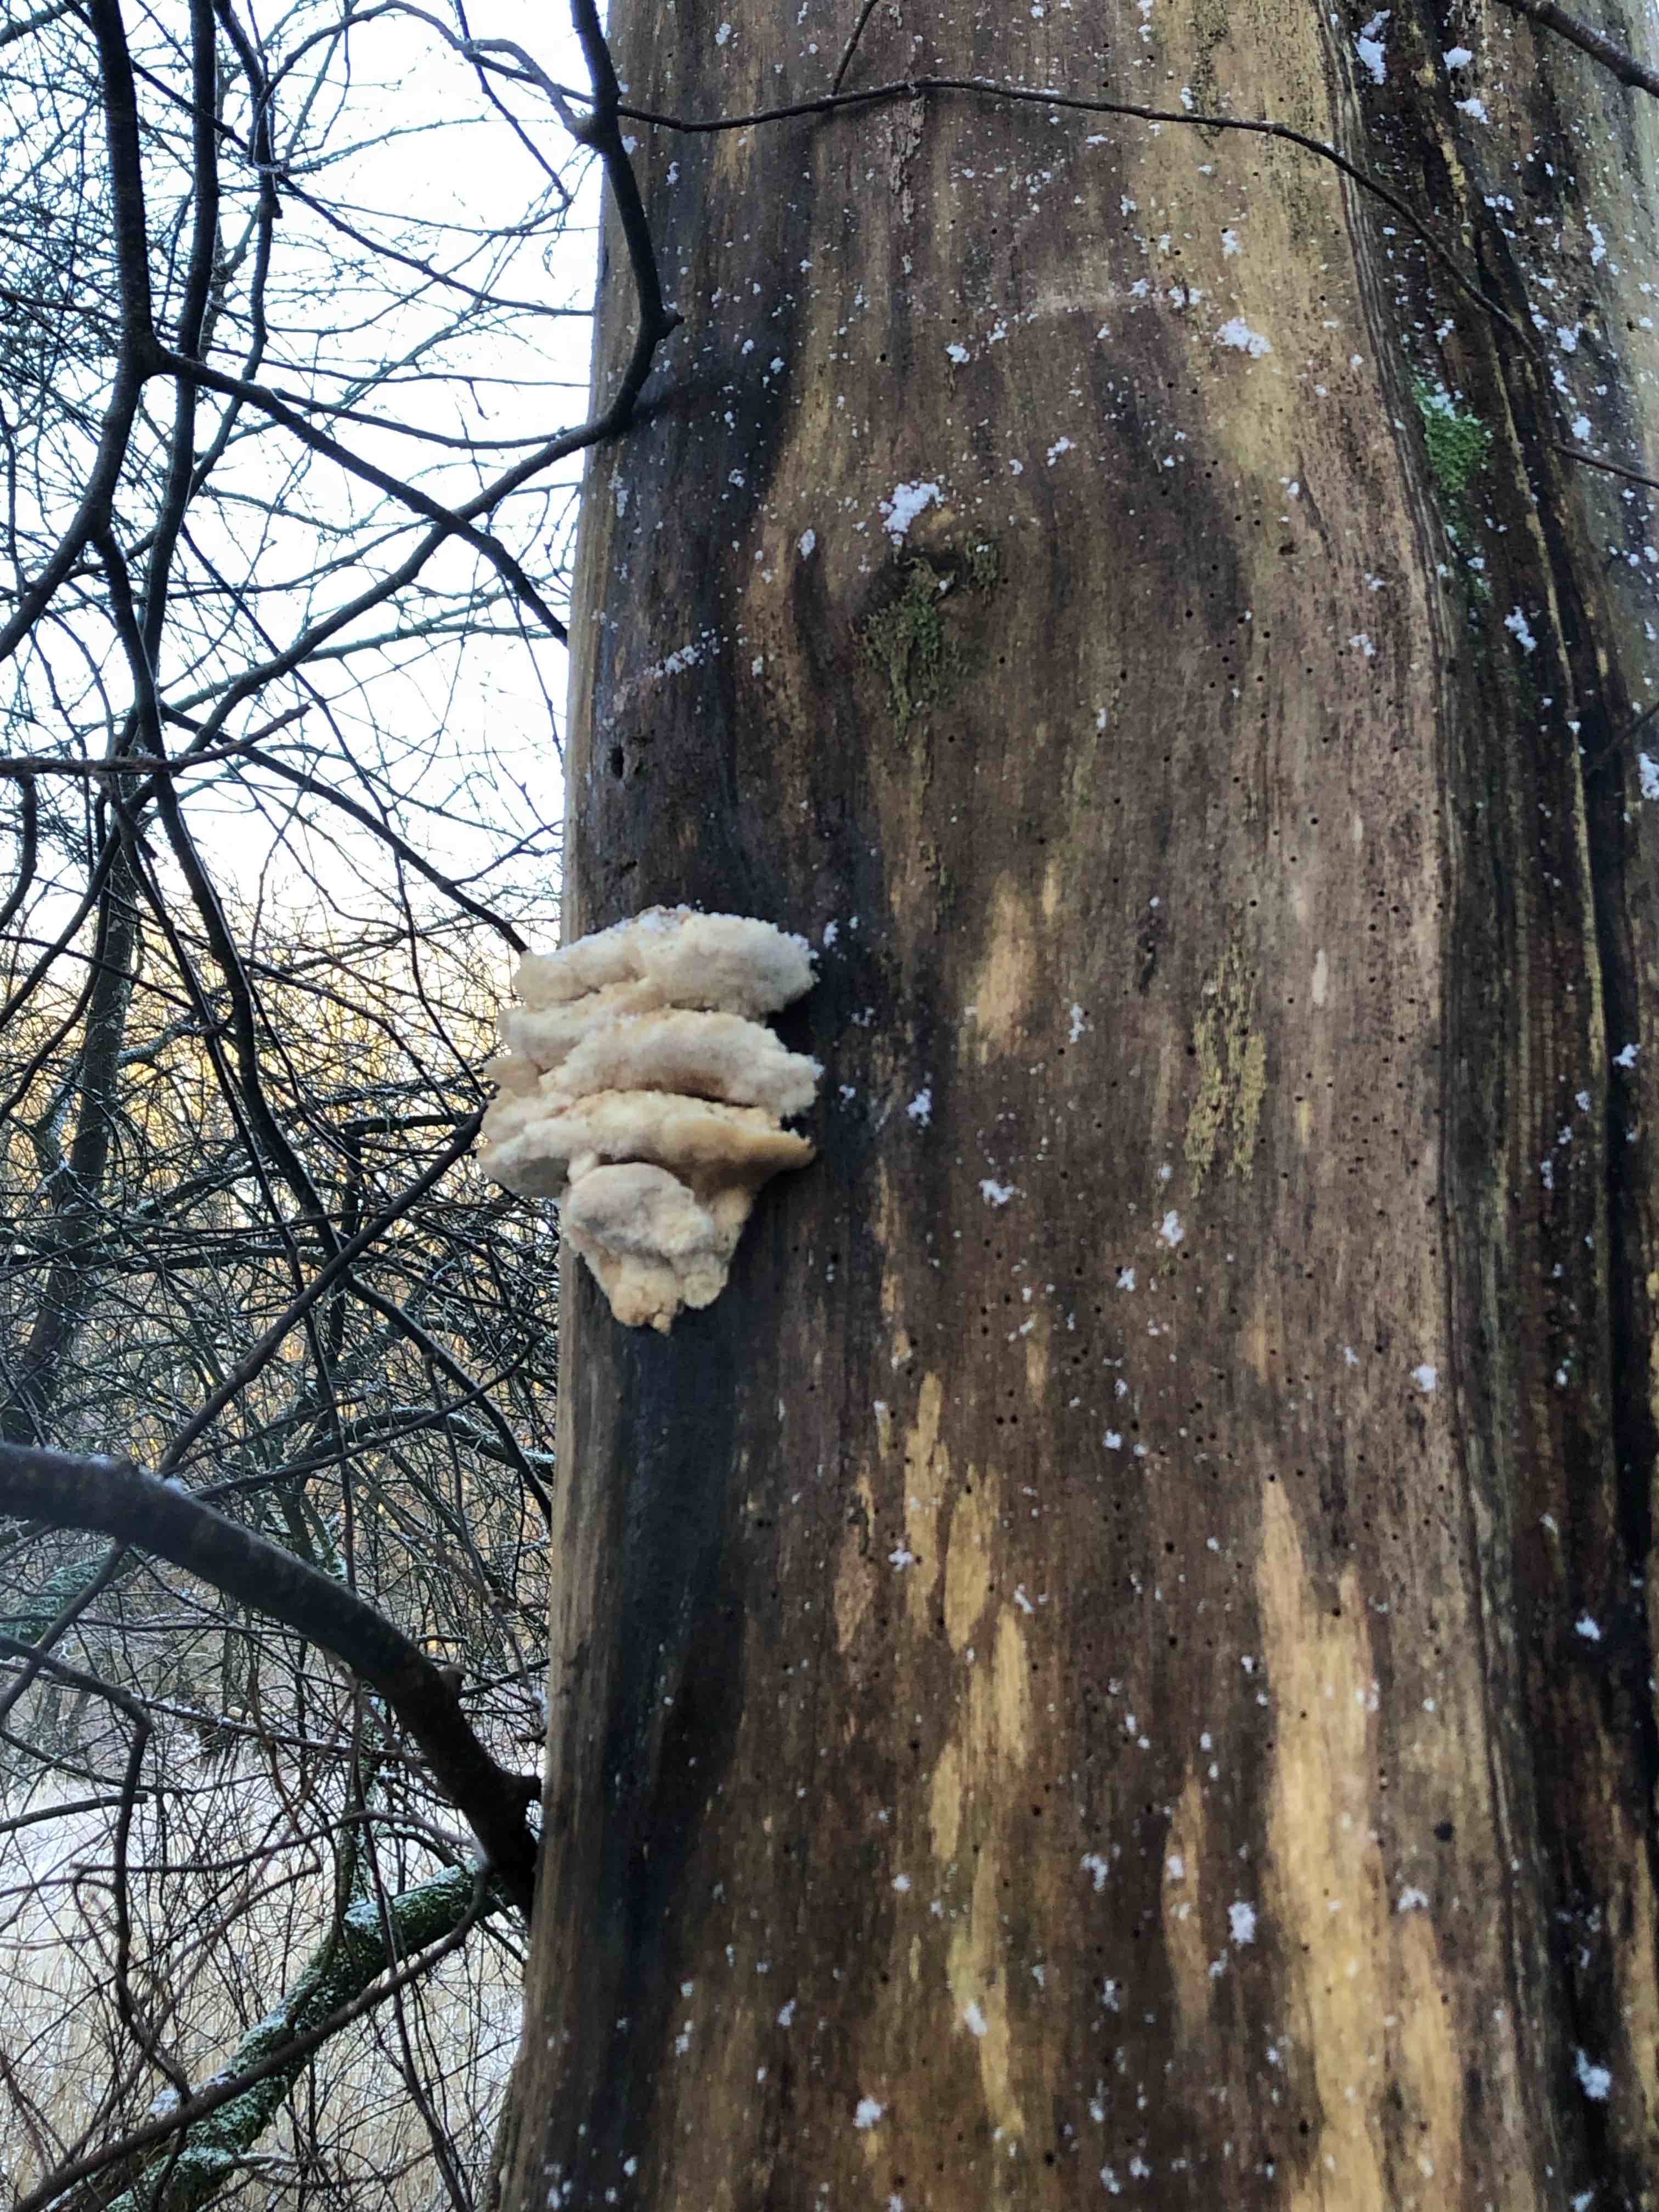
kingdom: Fungi
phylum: Basidiomycota
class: Agaricomycetes
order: Polyporales
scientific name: Polyporales
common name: poresvampordenen
